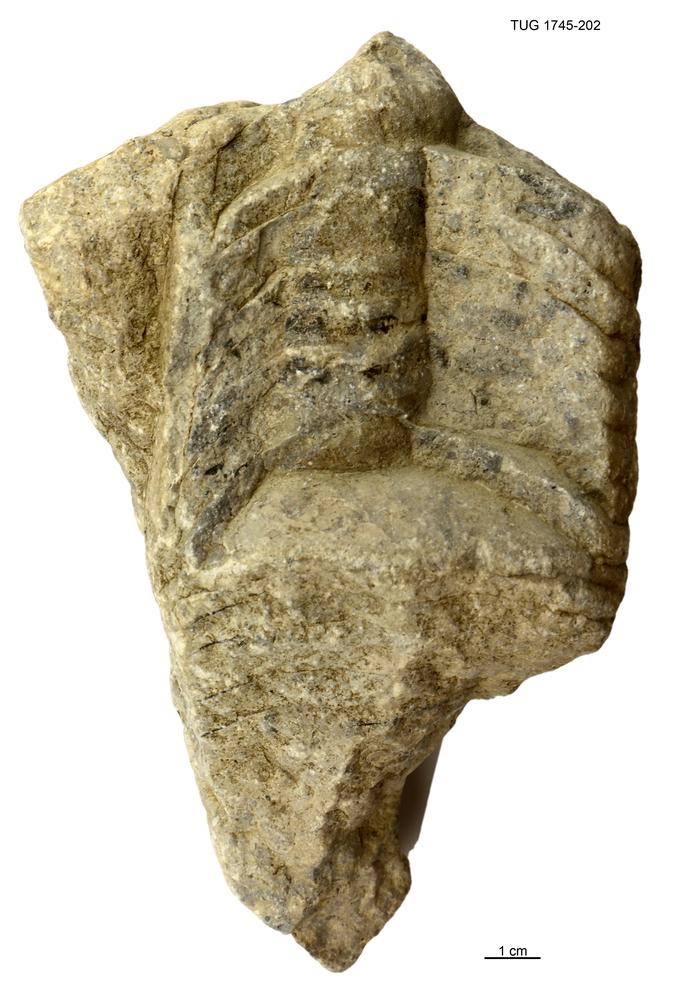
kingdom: Animalia
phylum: Mollusca
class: Cephalopoda
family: Endoceratidae
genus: Cameroceras
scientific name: Cameroceras Rossicoceras hasta
